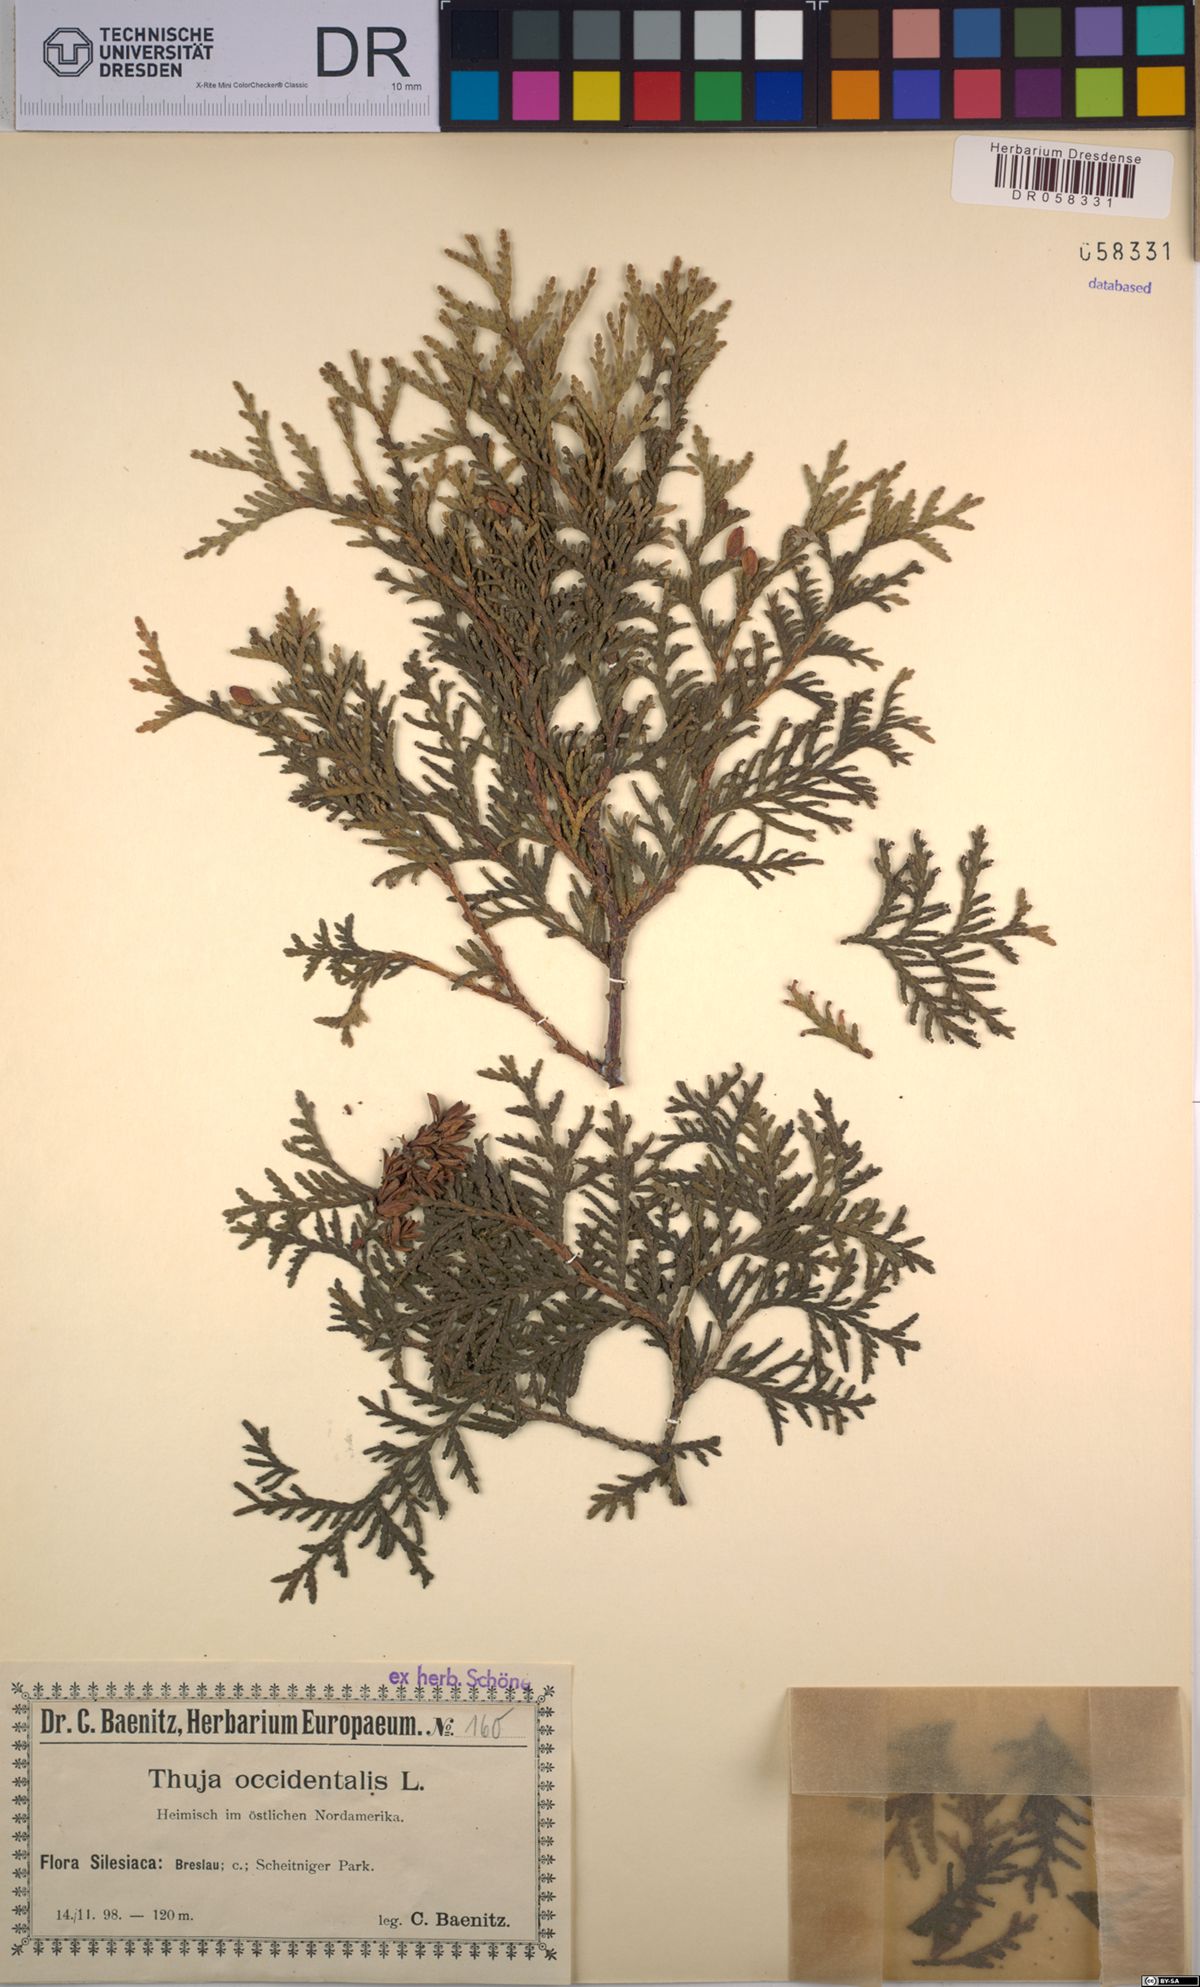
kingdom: Plantae
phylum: Tracheophyta
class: Pinopsida
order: Pinales
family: Cupressaceae
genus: Thuja
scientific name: Thuja occidentalis
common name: Northern white-cedar
